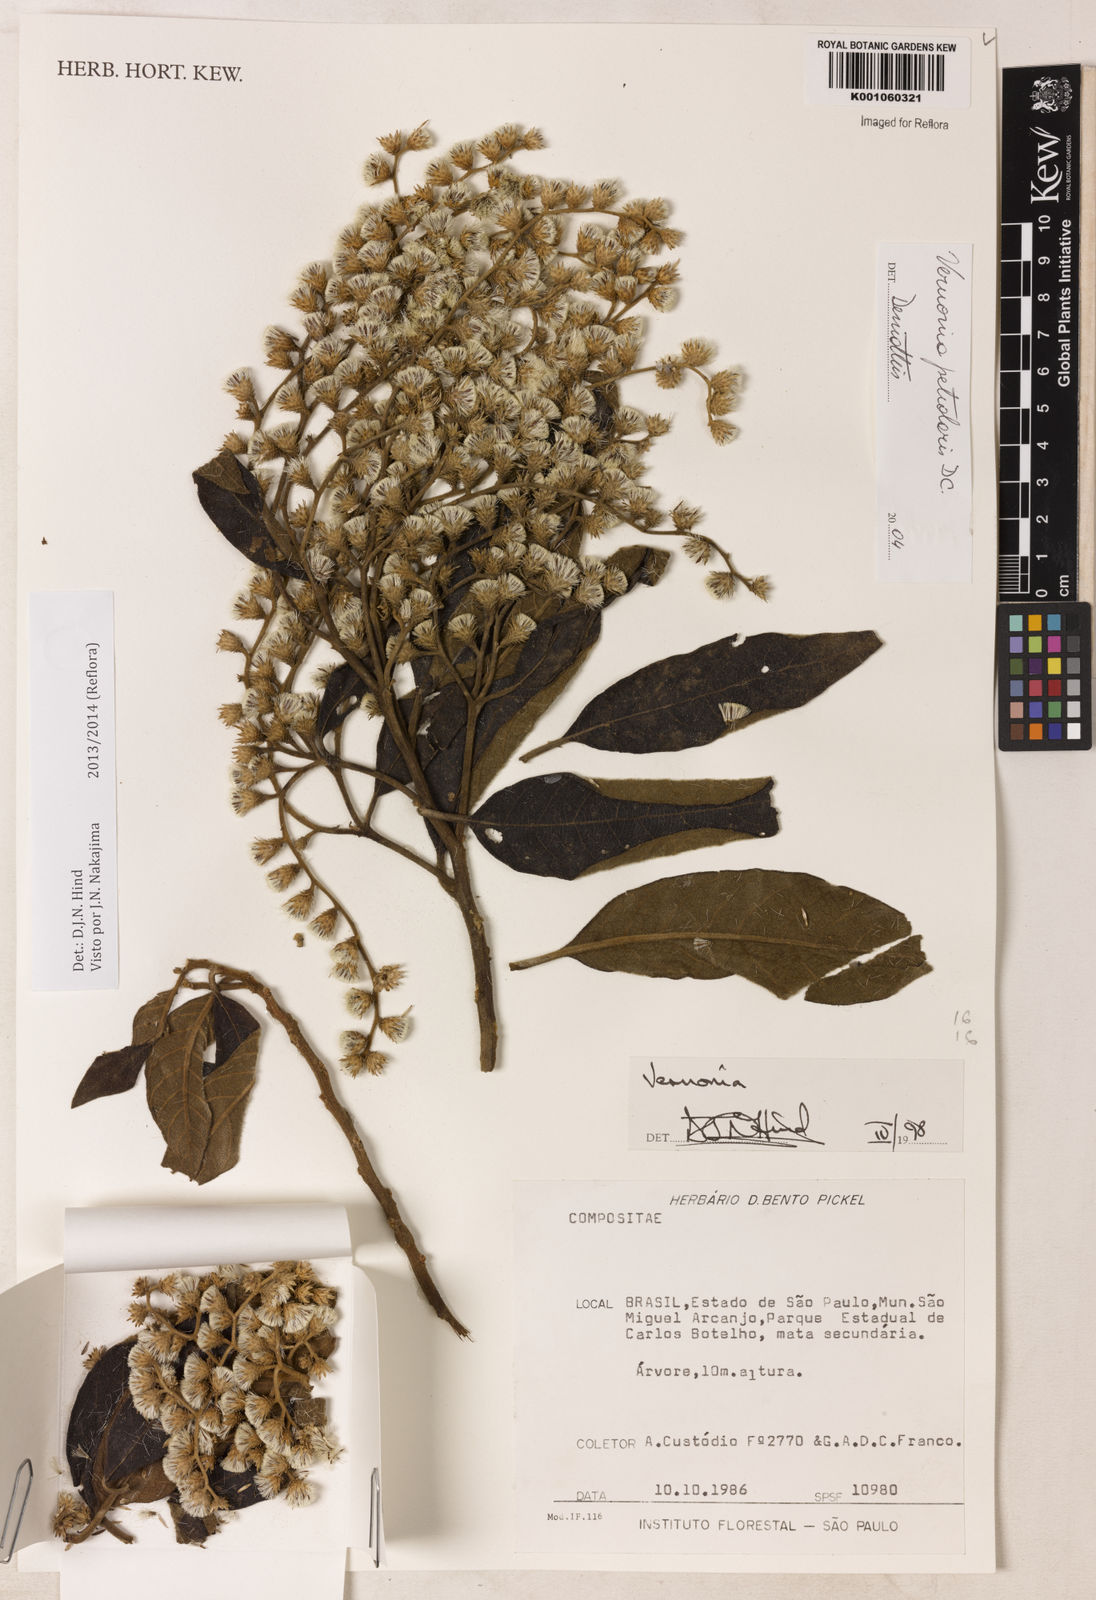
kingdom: Plantae
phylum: Tracheophyta
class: Magnoliopsida
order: Asterales
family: Asteraceae
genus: Vernonanthura
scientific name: Vernonanthura petiolaris
